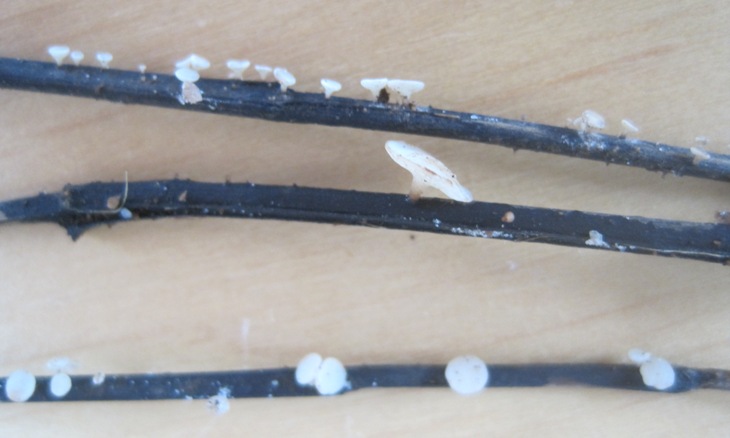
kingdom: Fungi
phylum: Ascomycota
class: Leotiomycetes
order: Helotiales
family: Helotiaceae
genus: Hymenoscyphus
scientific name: Hymenoscyphus fraxineus
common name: asketoptørre-stilkskive
